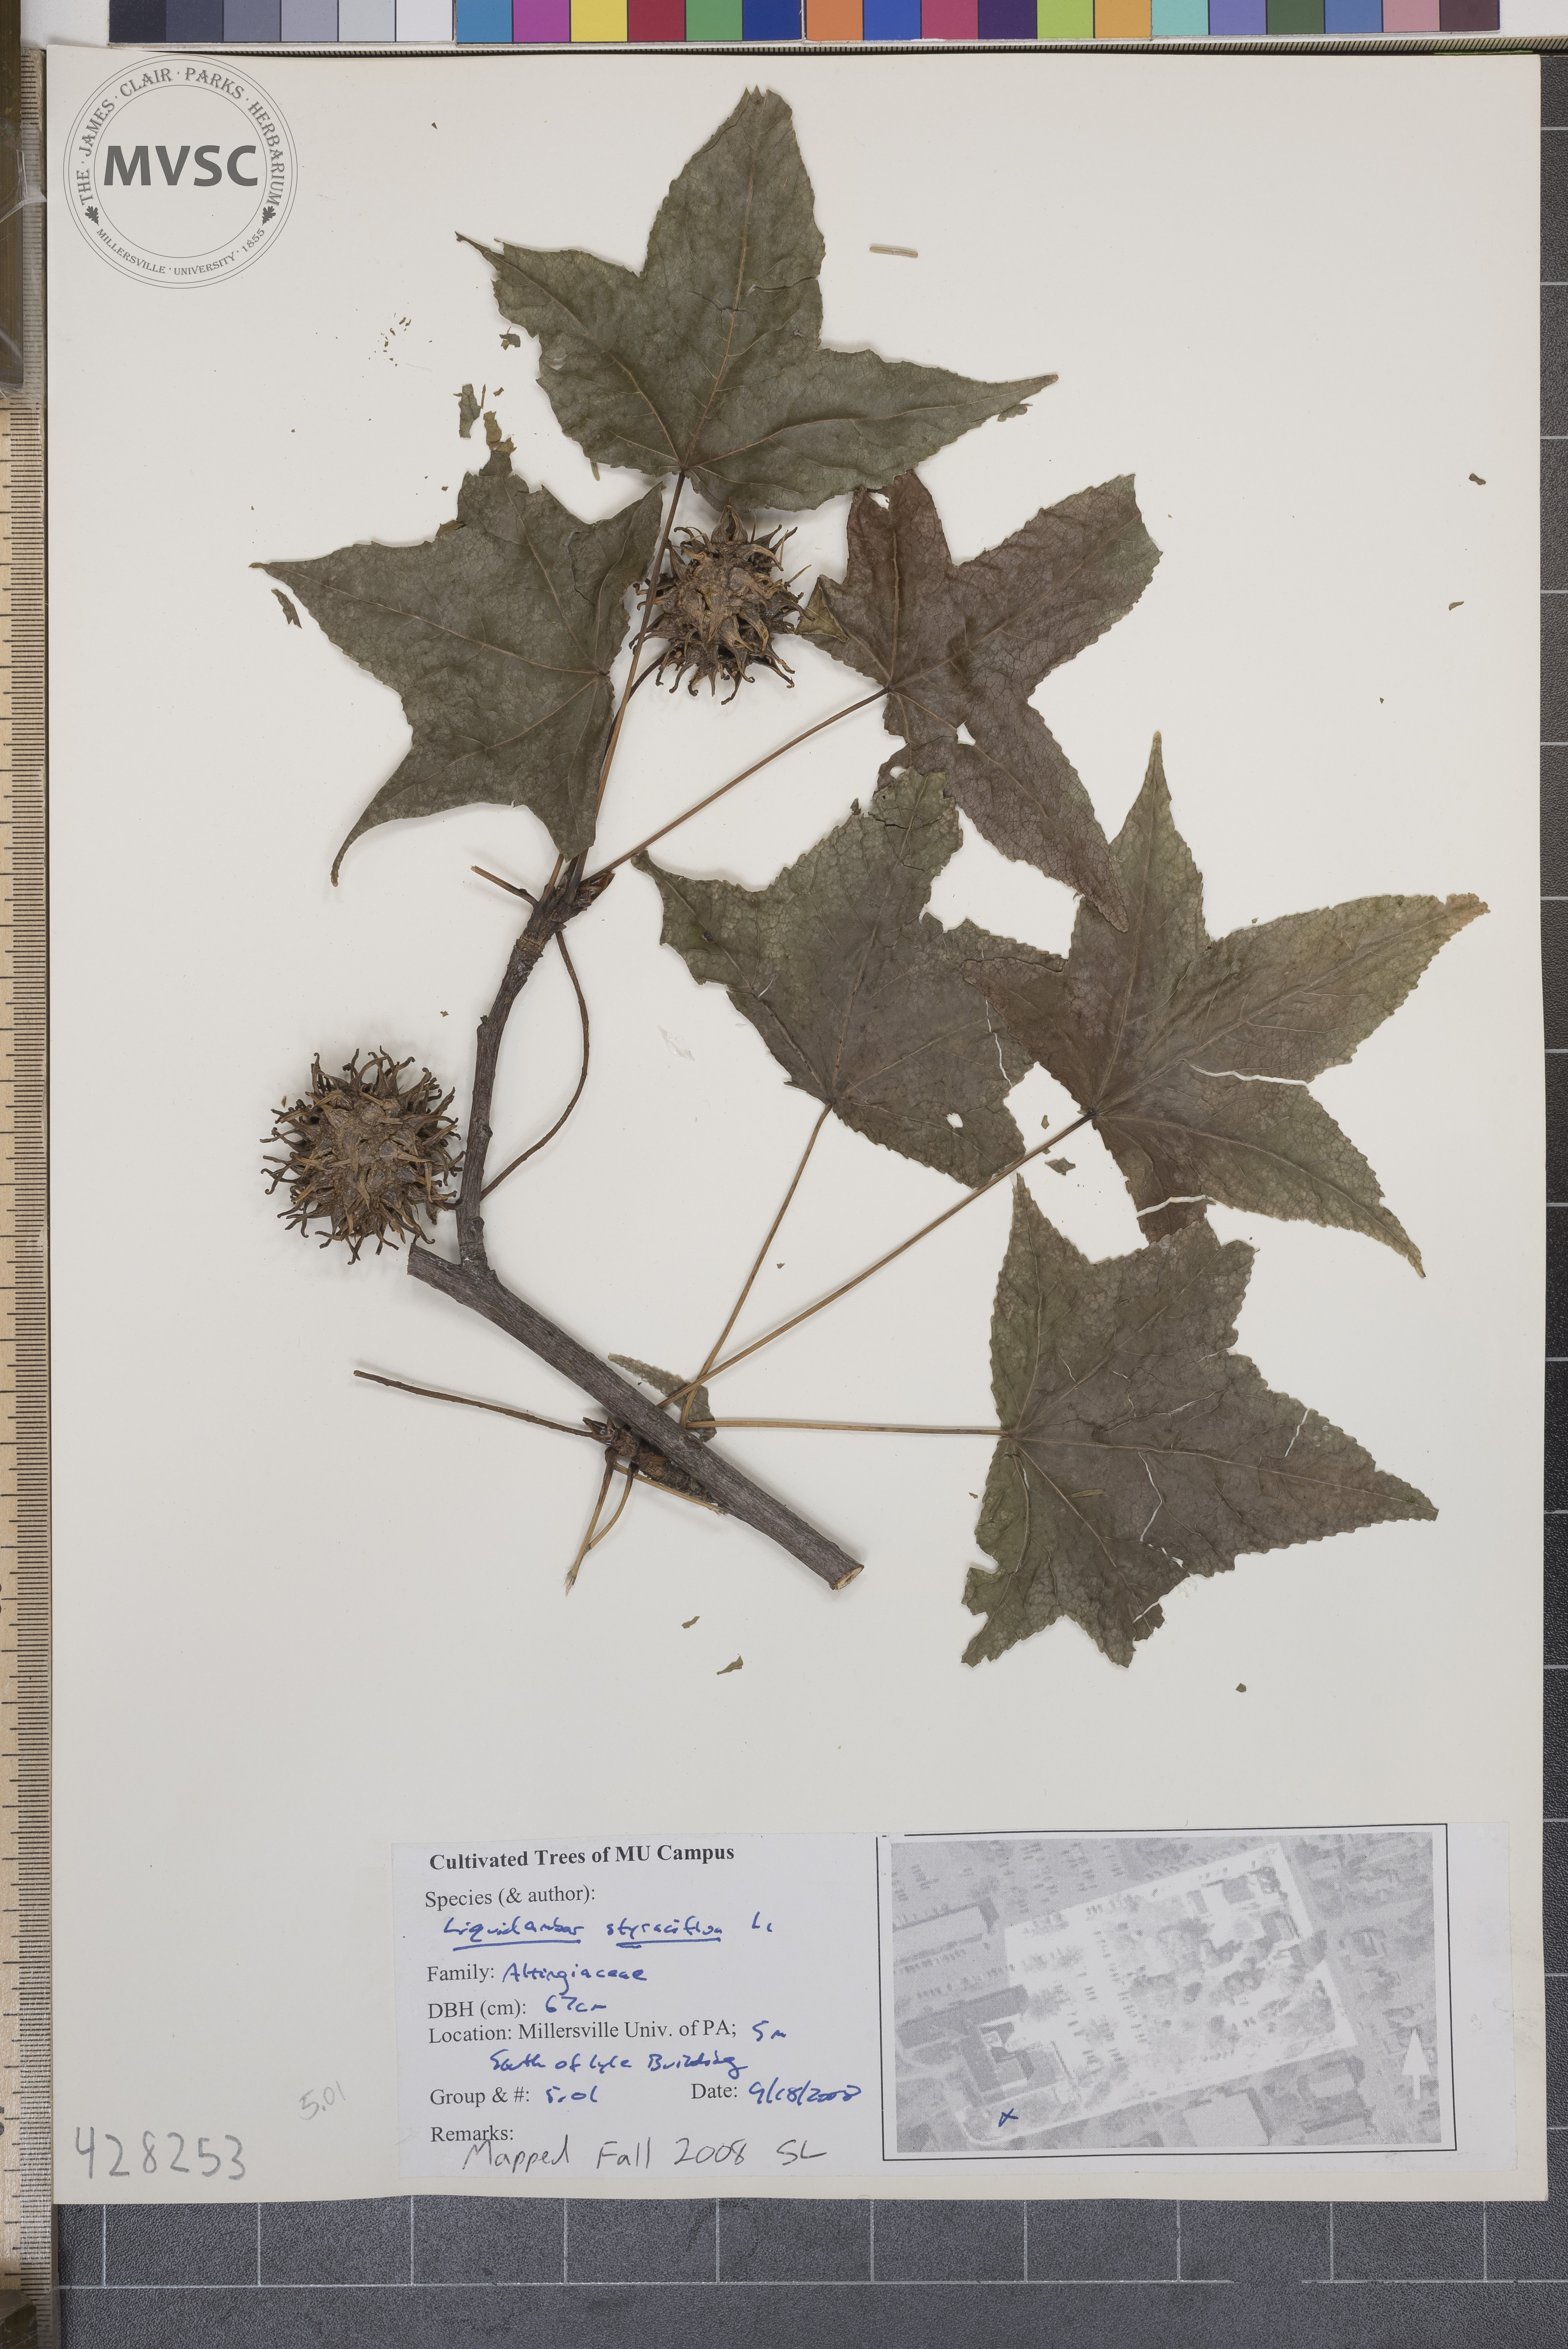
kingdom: Plantae
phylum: Tracheophyta
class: Magnoliopsida
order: Saxifragales
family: Altingiaceae
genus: Liquidambar
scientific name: Liquidambar styraciflua
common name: Sweetgum
